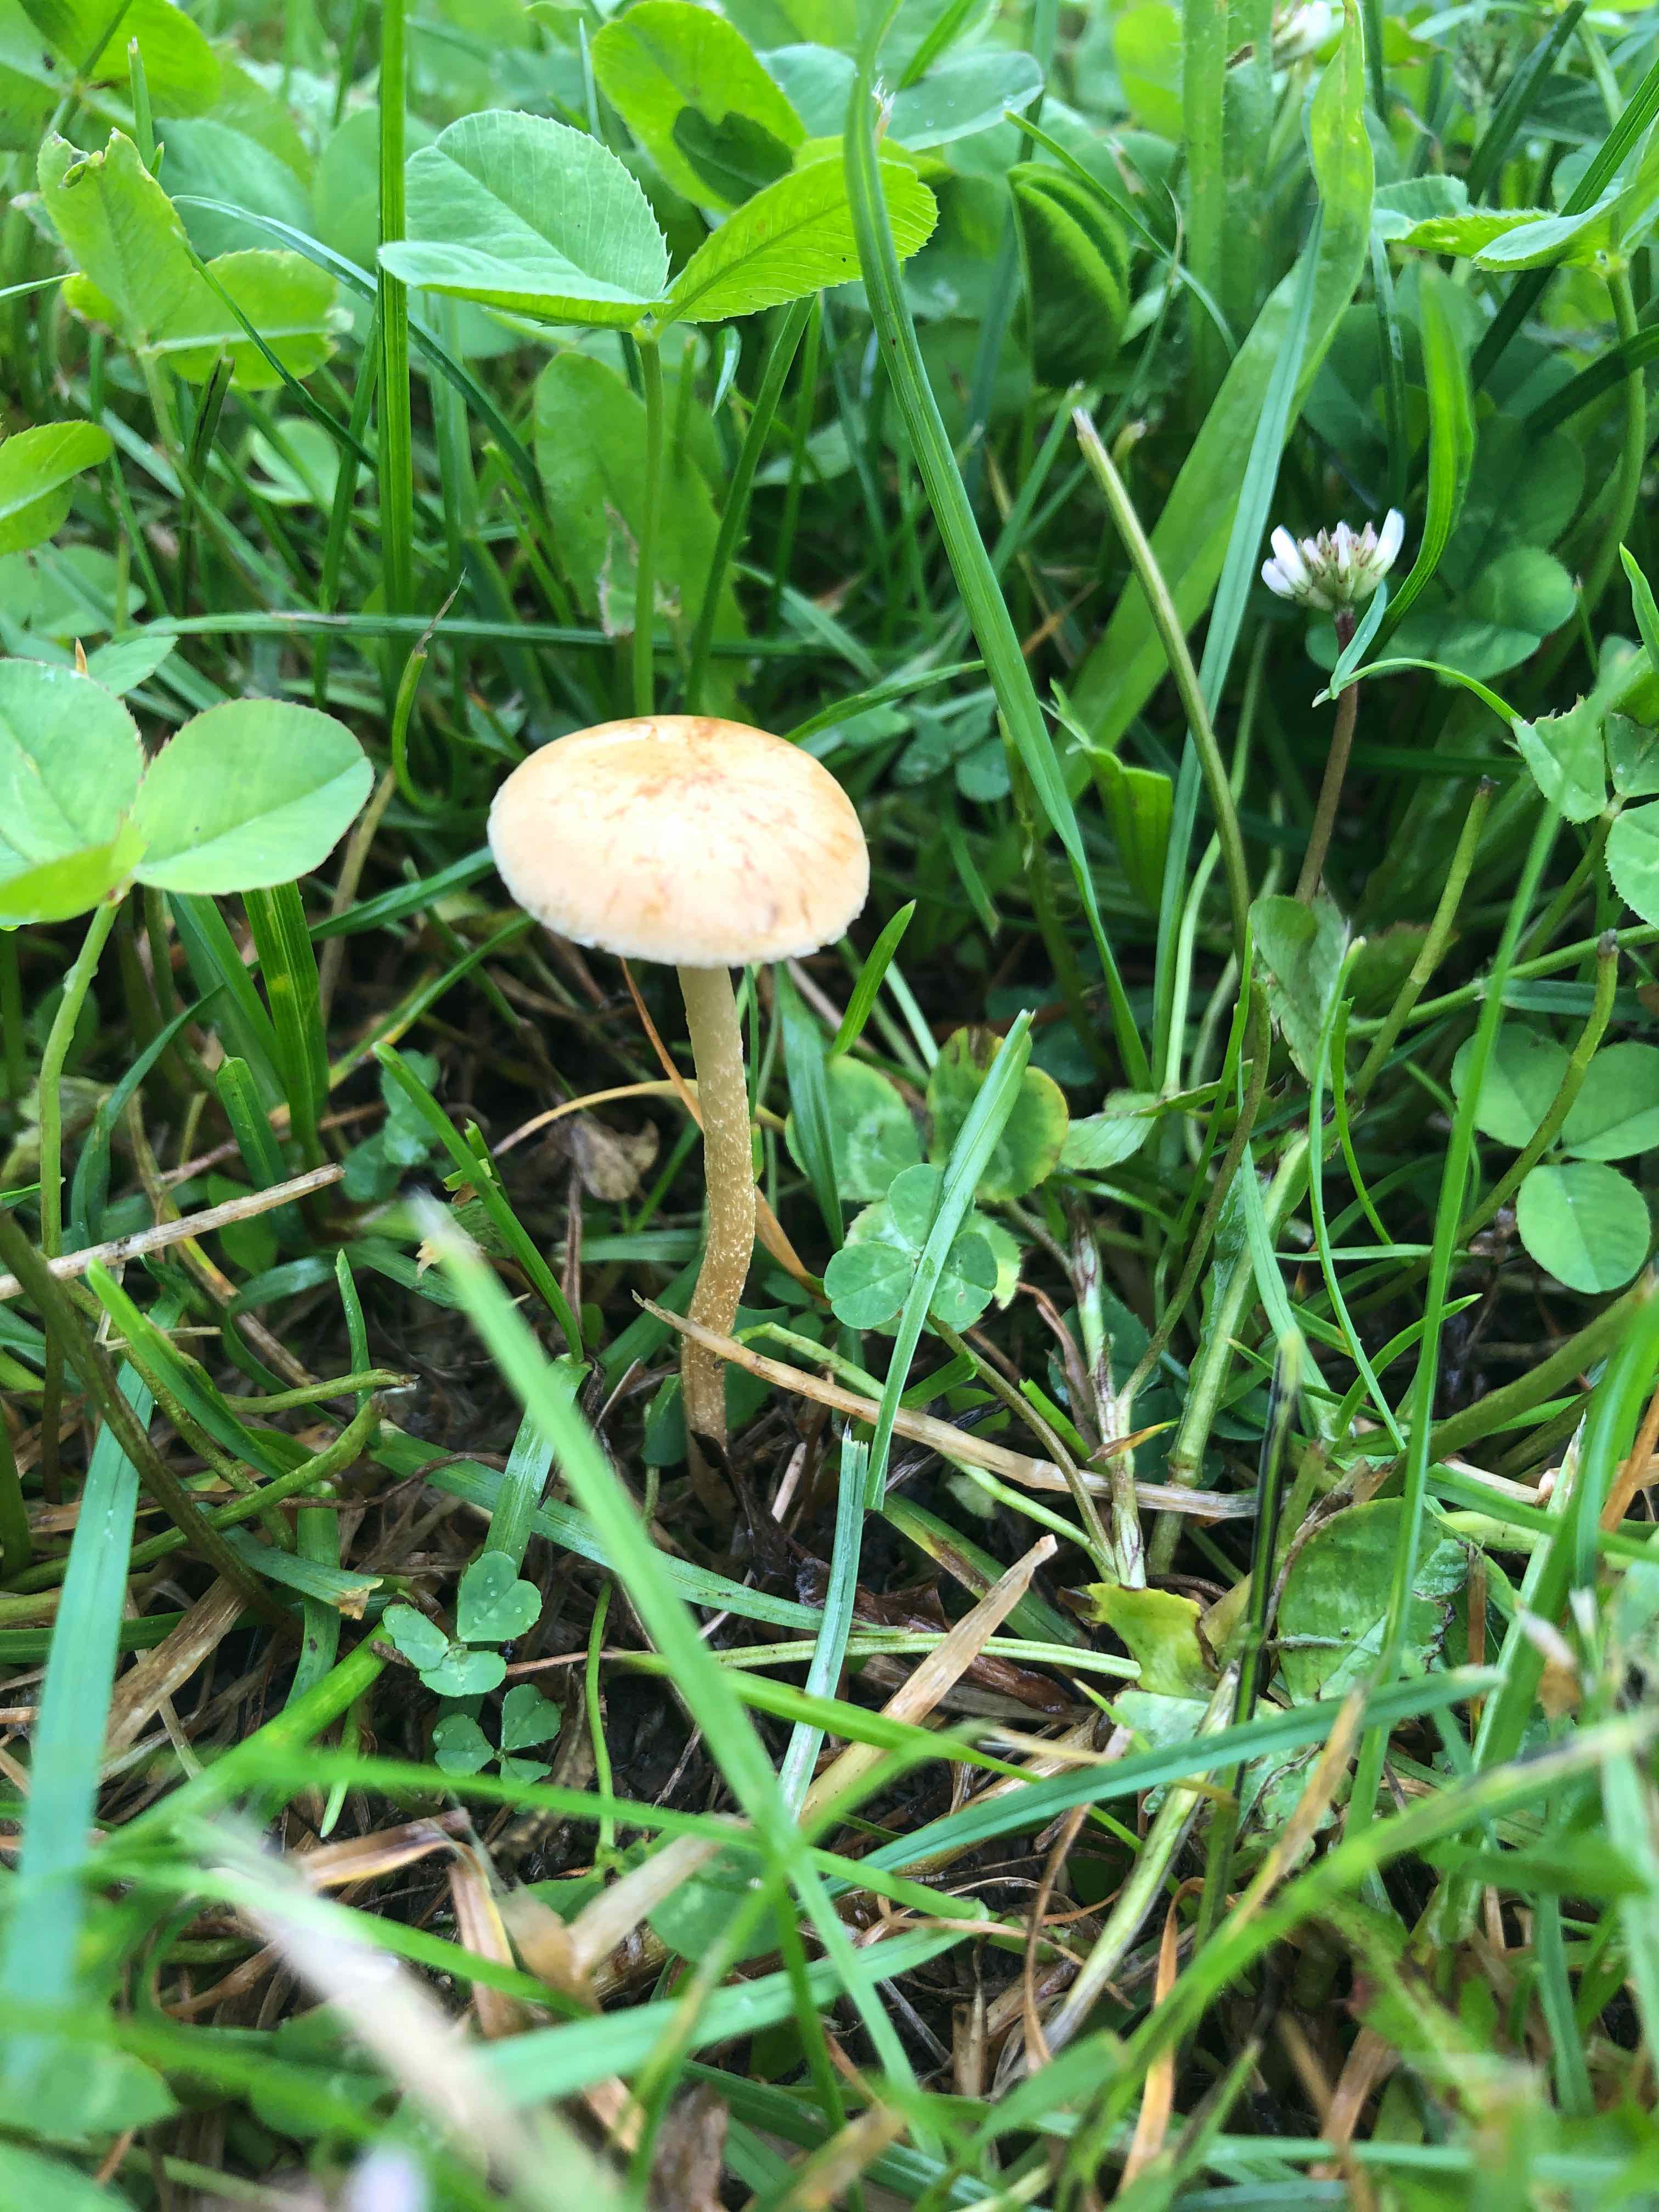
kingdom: Fungi
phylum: Basidiomycota
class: Agaricomycetes
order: Agaricales
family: Strophariaceae
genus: Agrocybe
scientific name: Agrocybe pediades
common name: almindelig agerhat
